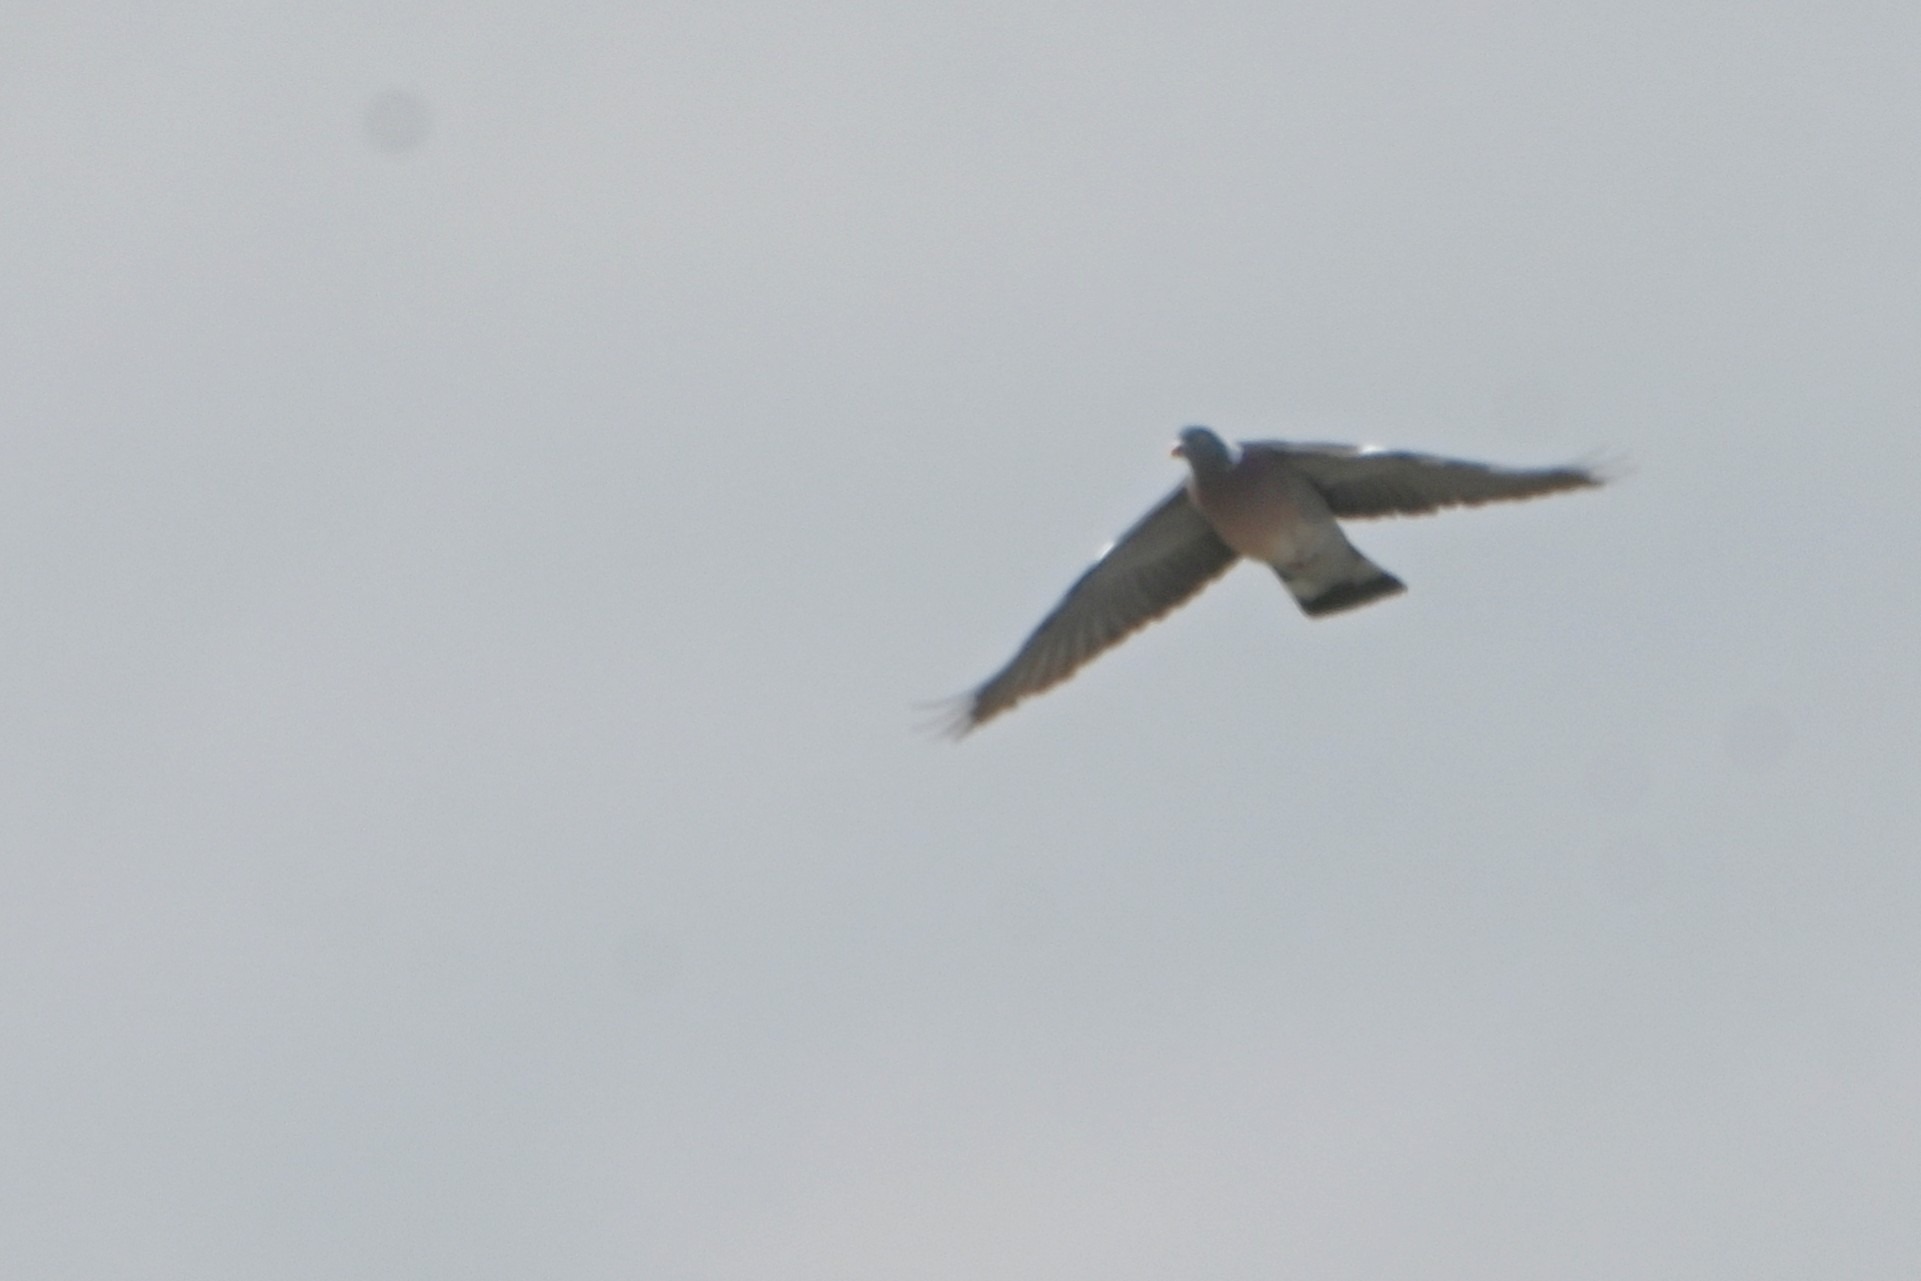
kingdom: Animalia
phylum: Chordata
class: Aves
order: Columbiformes
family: Columbidae
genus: Columba
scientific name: Columba palumbus
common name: Ringdue
